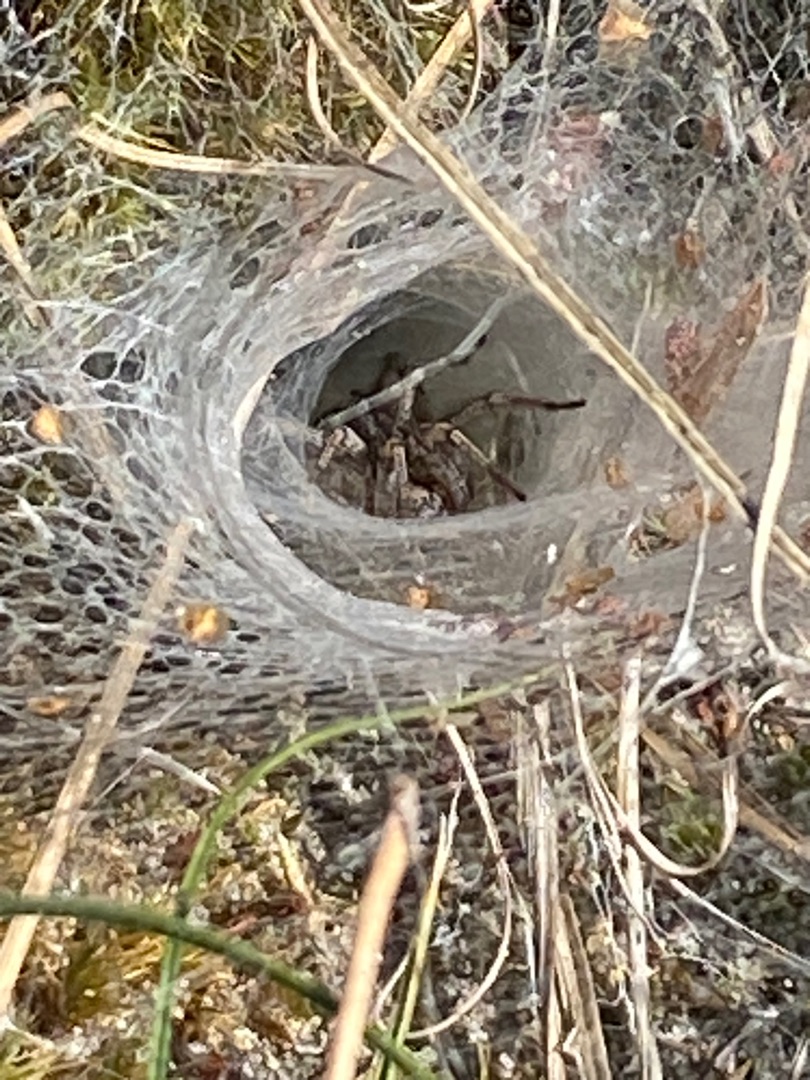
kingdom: Animalia
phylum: Arthropoda
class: Arachnida
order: Araneae
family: Agelenidae
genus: Agelena
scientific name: Agelena labyrinthica
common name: Labyrintedderkop
